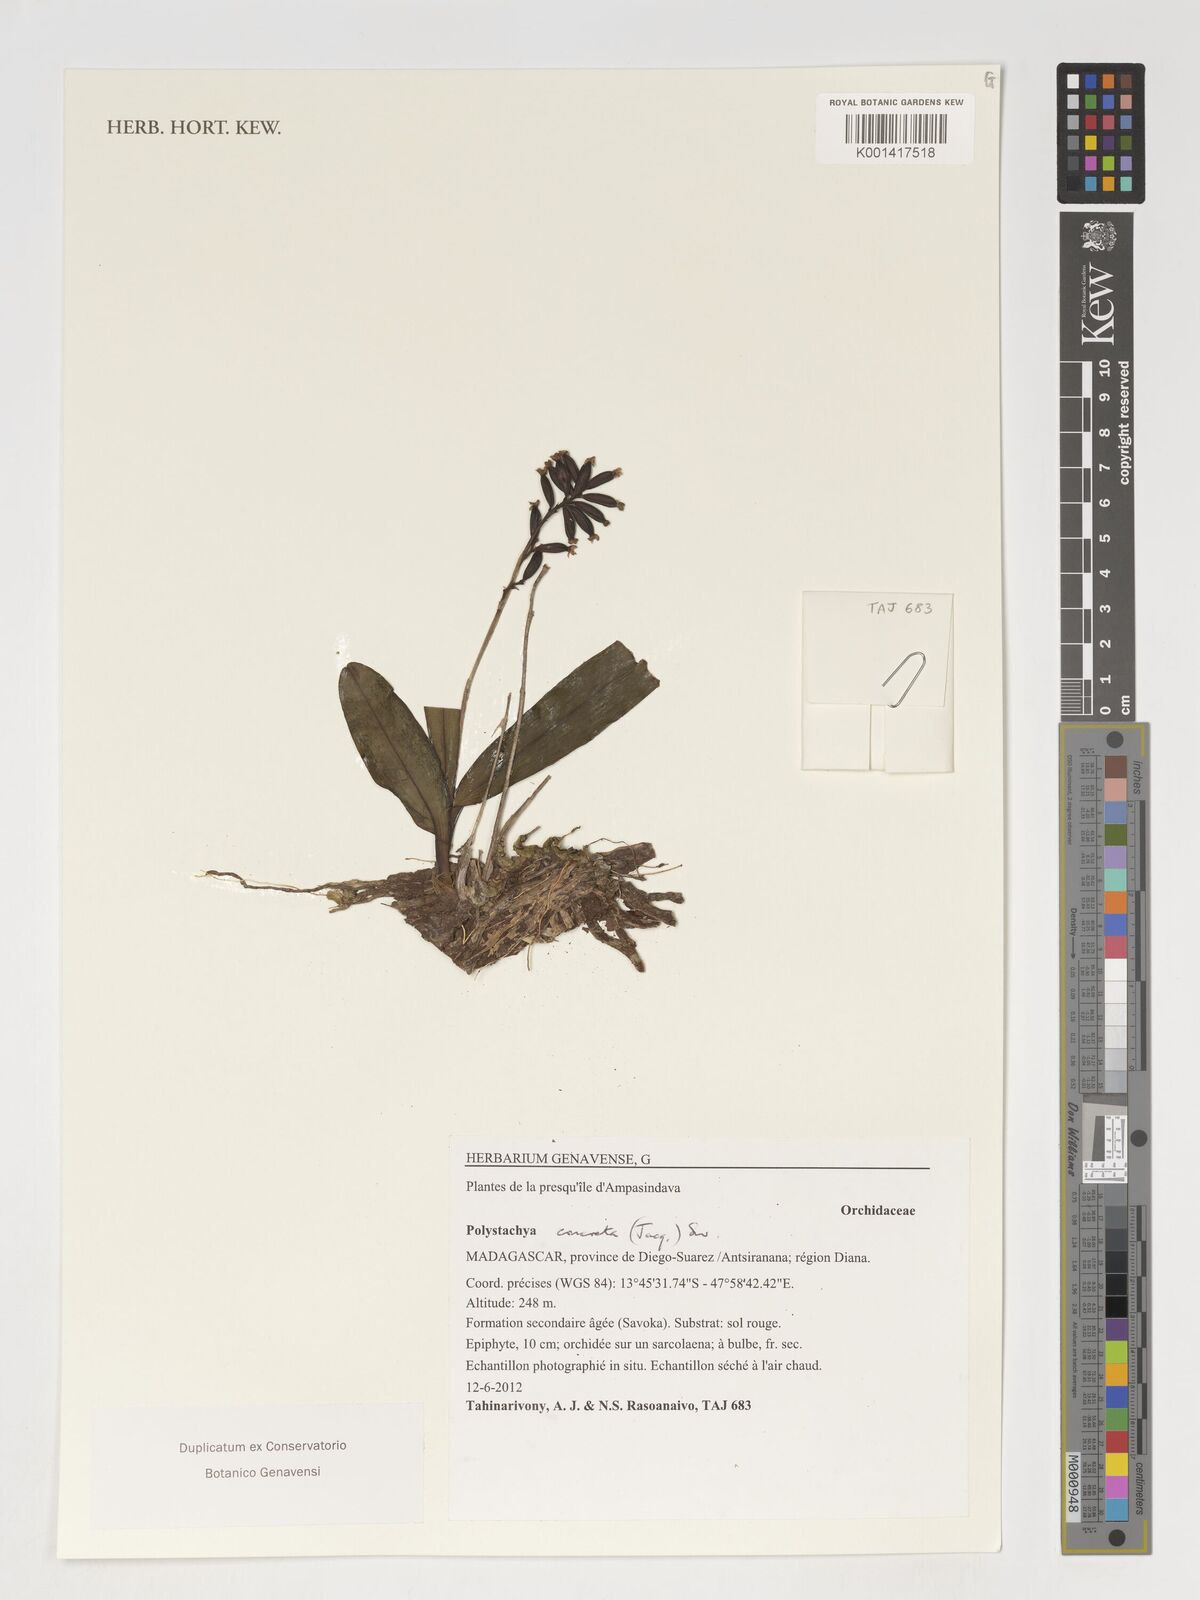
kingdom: Plantae
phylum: Tracheophyta
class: Liliopsida
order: Asparagales
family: Orchidaceae
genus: Polystachya
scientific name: Polystachya concreta
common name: Greater yellowspike orchid
